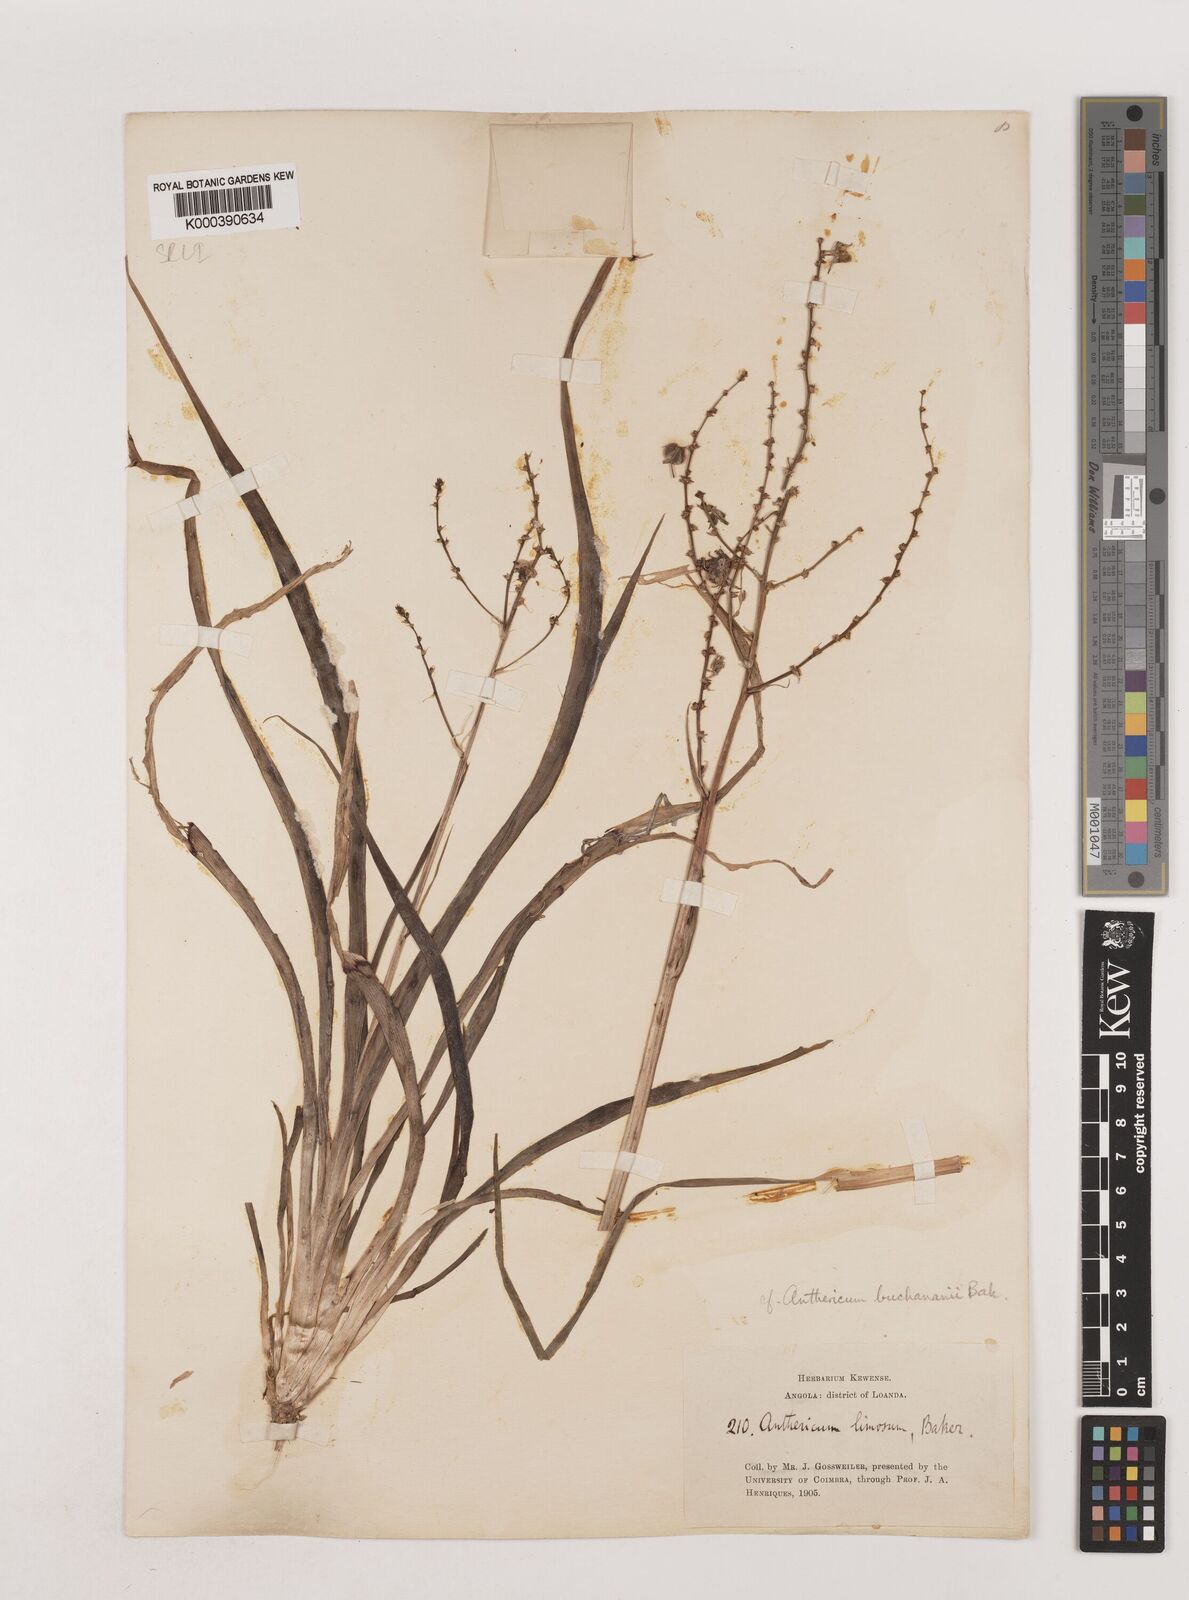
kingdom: Plantae
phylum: Tracheophyta
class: Liliopsida
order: Asparagales
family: Asparagaceae
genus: Chlorophytum
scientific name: Chlorophytum limosum
